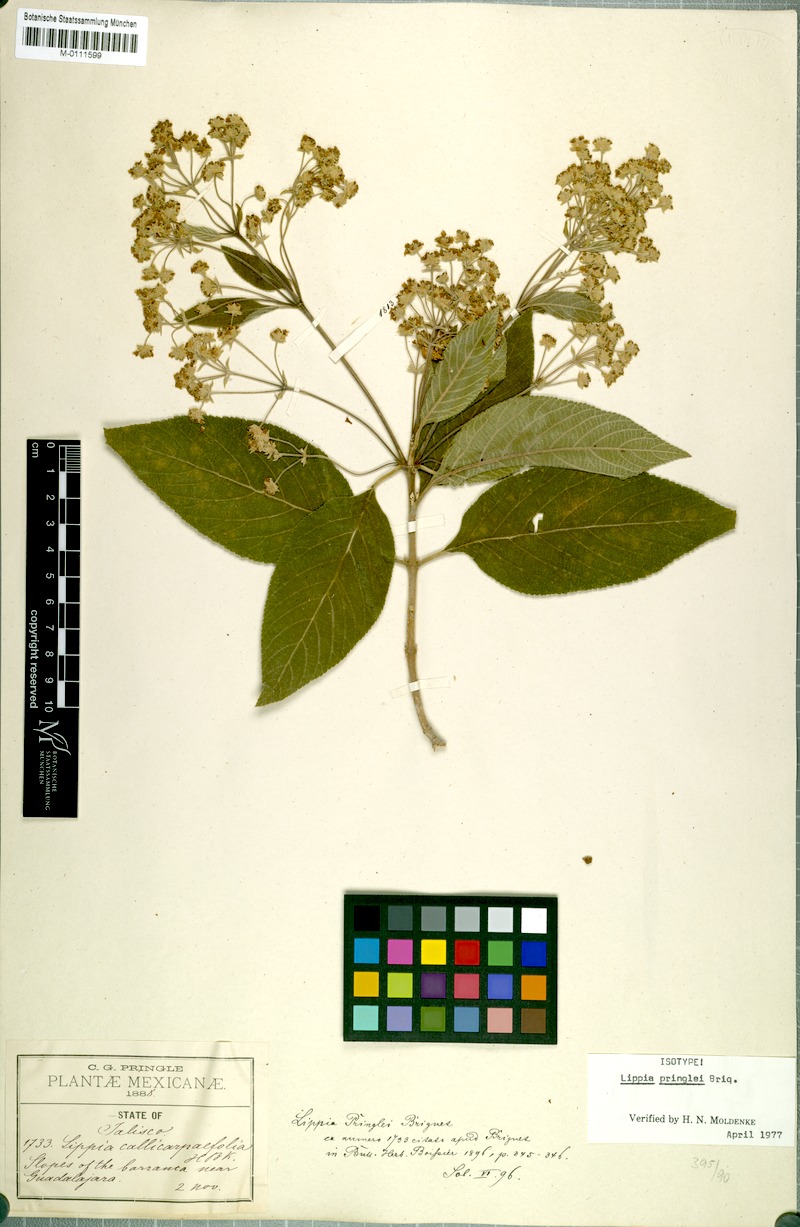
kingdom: Plantae
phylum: Tracheophyta
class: Magnoliopsida
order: Lamiales
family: Verbenaceae
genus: Lippia
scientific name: Lippia umbellata
